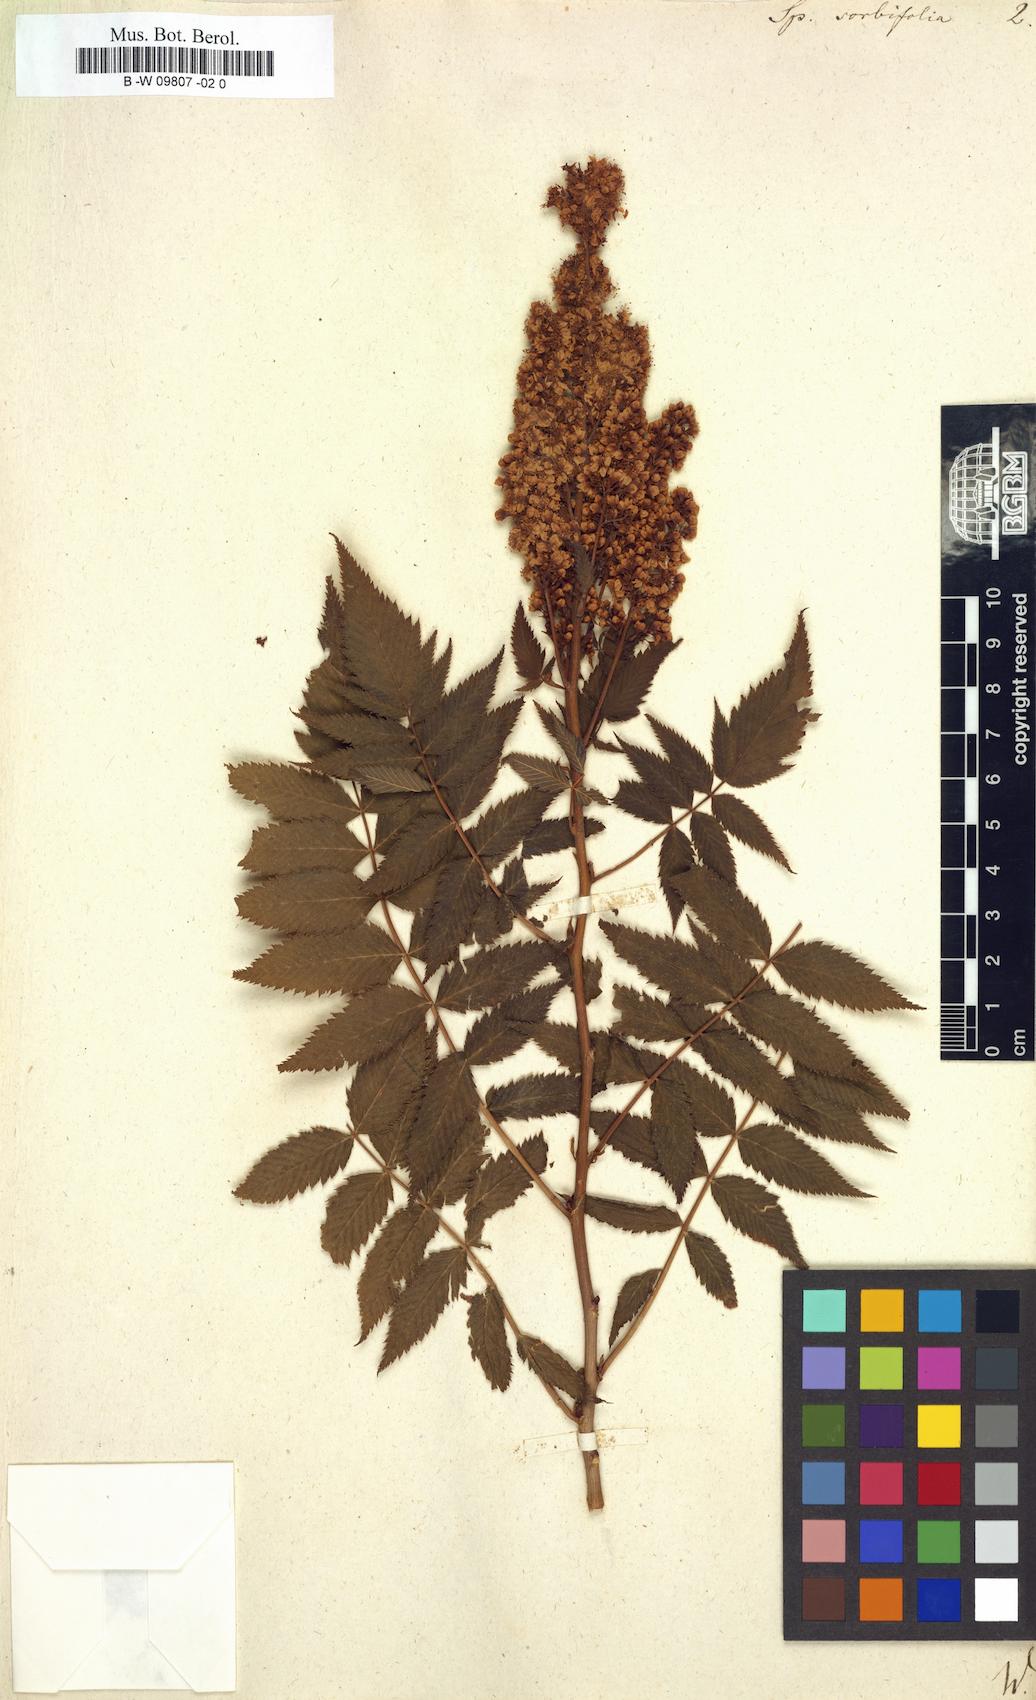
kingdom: Plantae
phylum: Tracheophyta
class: Magnoliopsida
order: Rosales
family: Rosaceae
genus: Sorbaria
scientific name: Sorbaria
